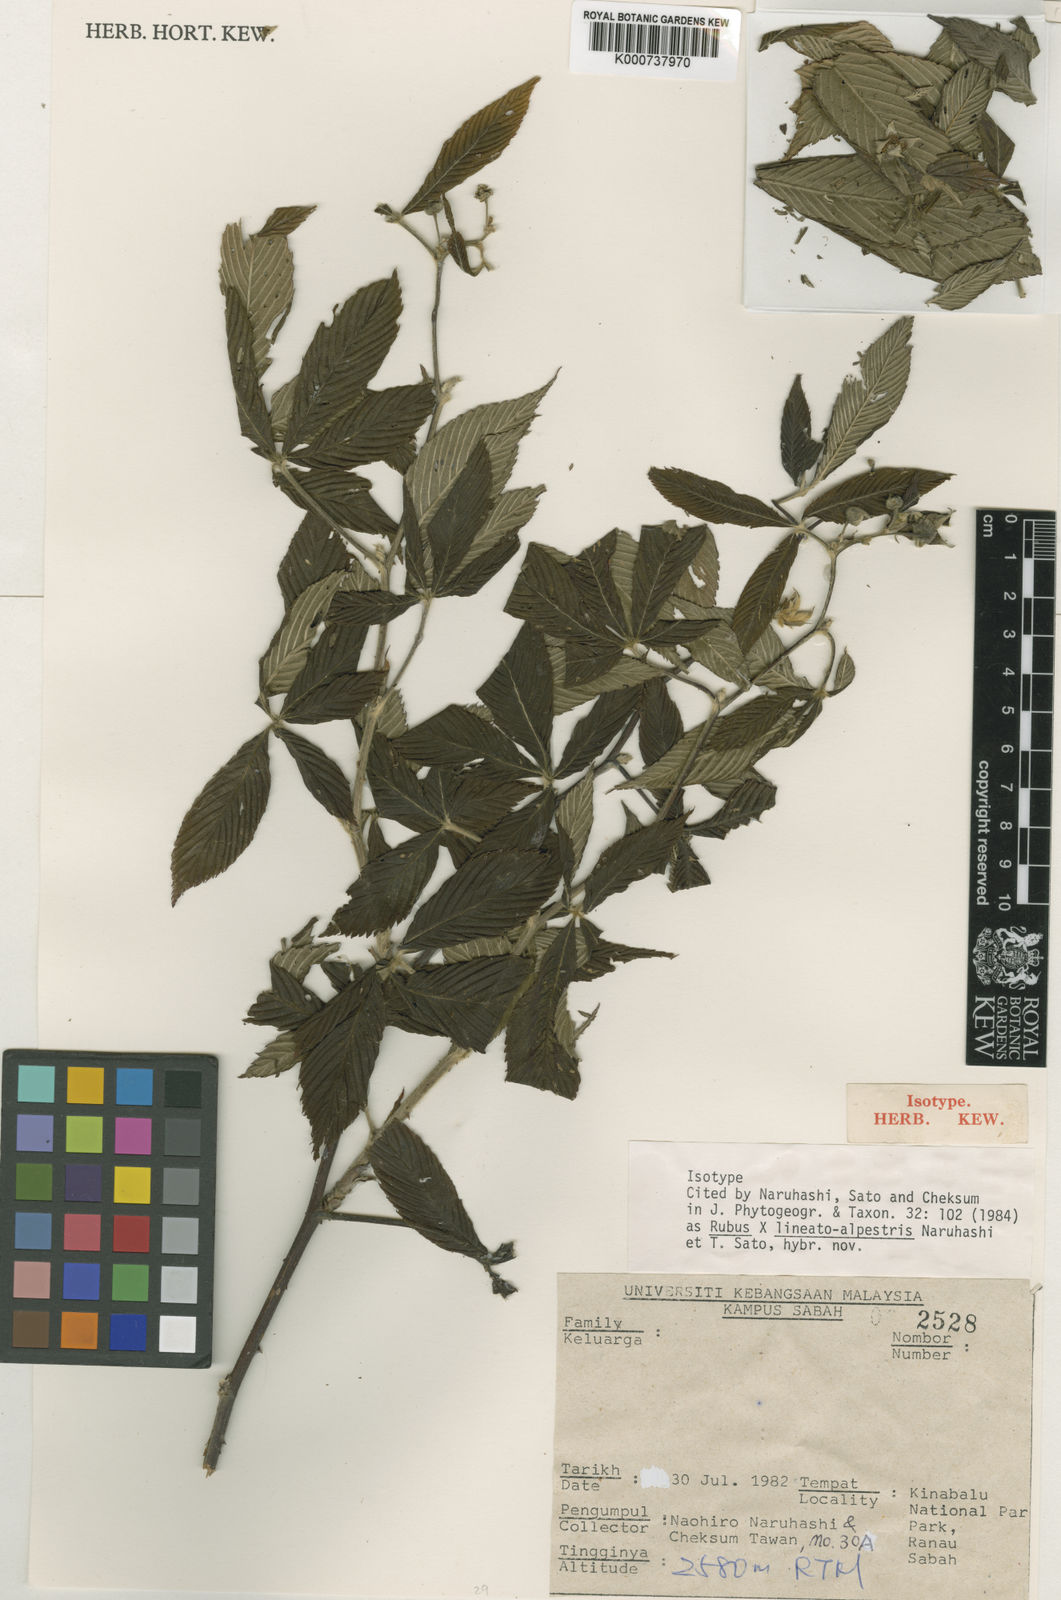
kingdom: Plantae
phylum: Tracheophyta
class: Magnoliopsida
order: Rosales
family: Rosaceae
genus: Rubus
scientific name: Rubus
